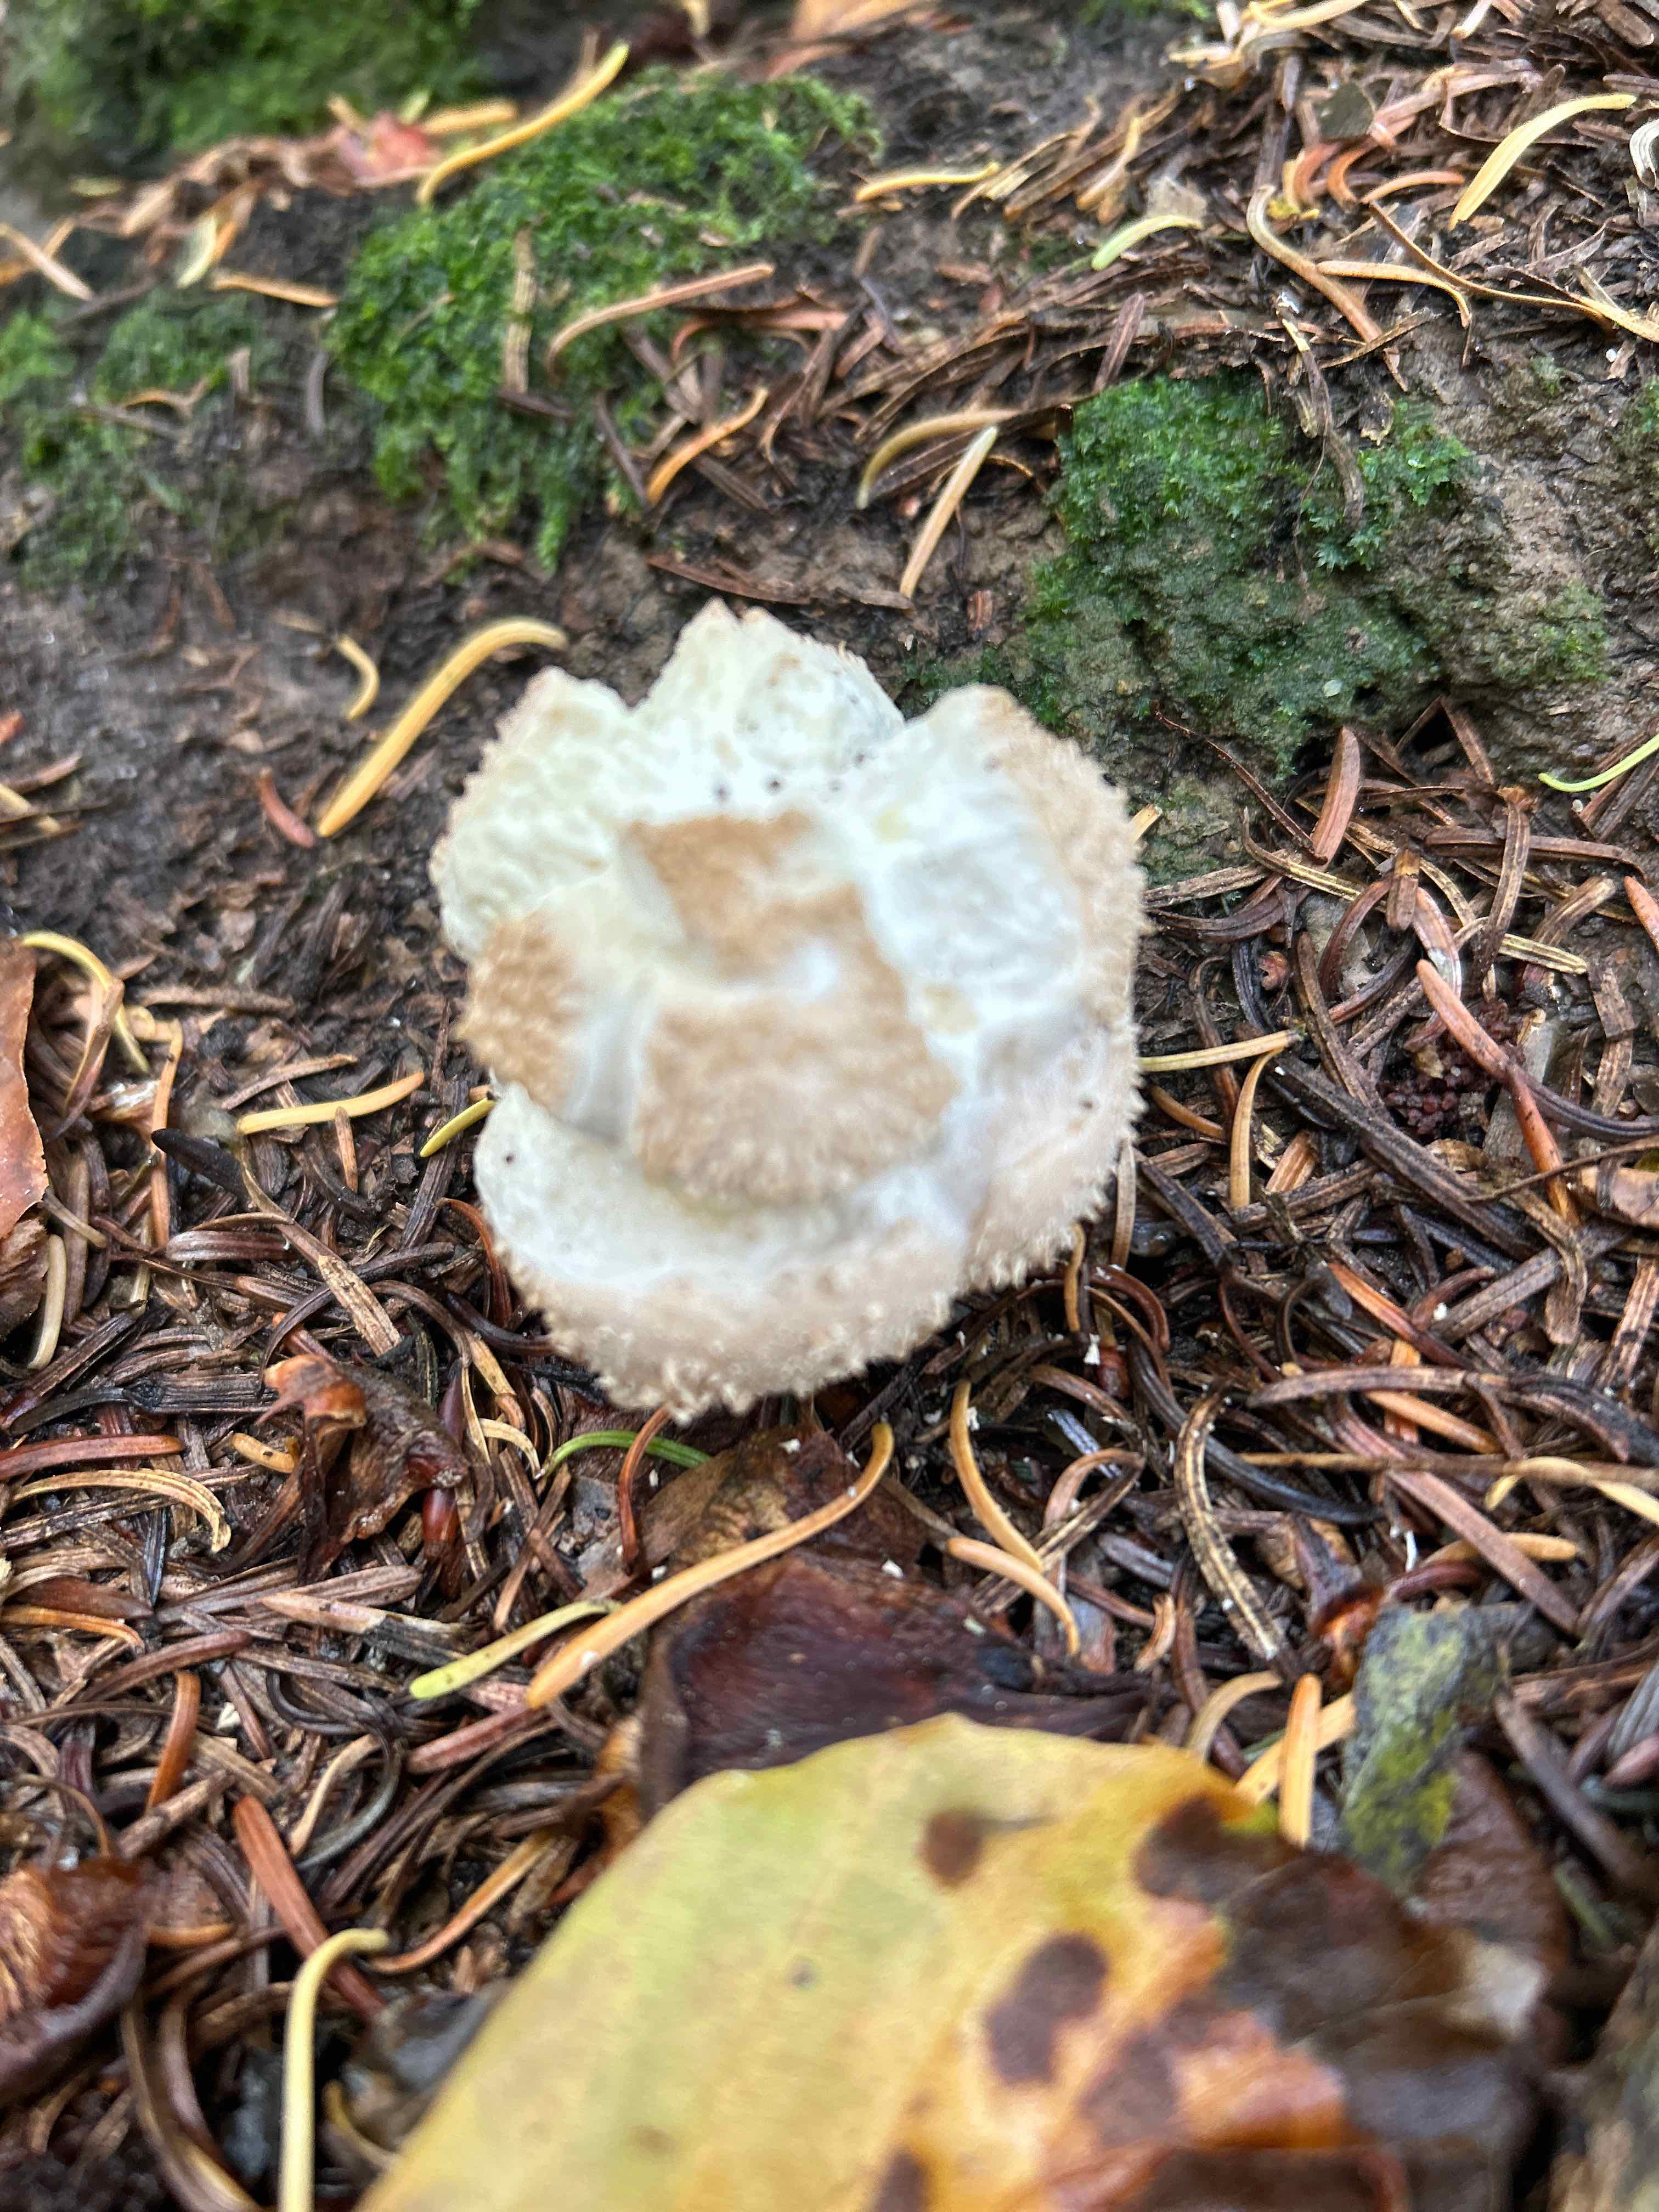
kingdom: Fungi
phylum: Basidiomycota
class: Agaricomycetes
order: Agaricales
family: Agaricaceae
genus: Lycoperdon
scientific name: Lycoperdon
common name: støvbold
